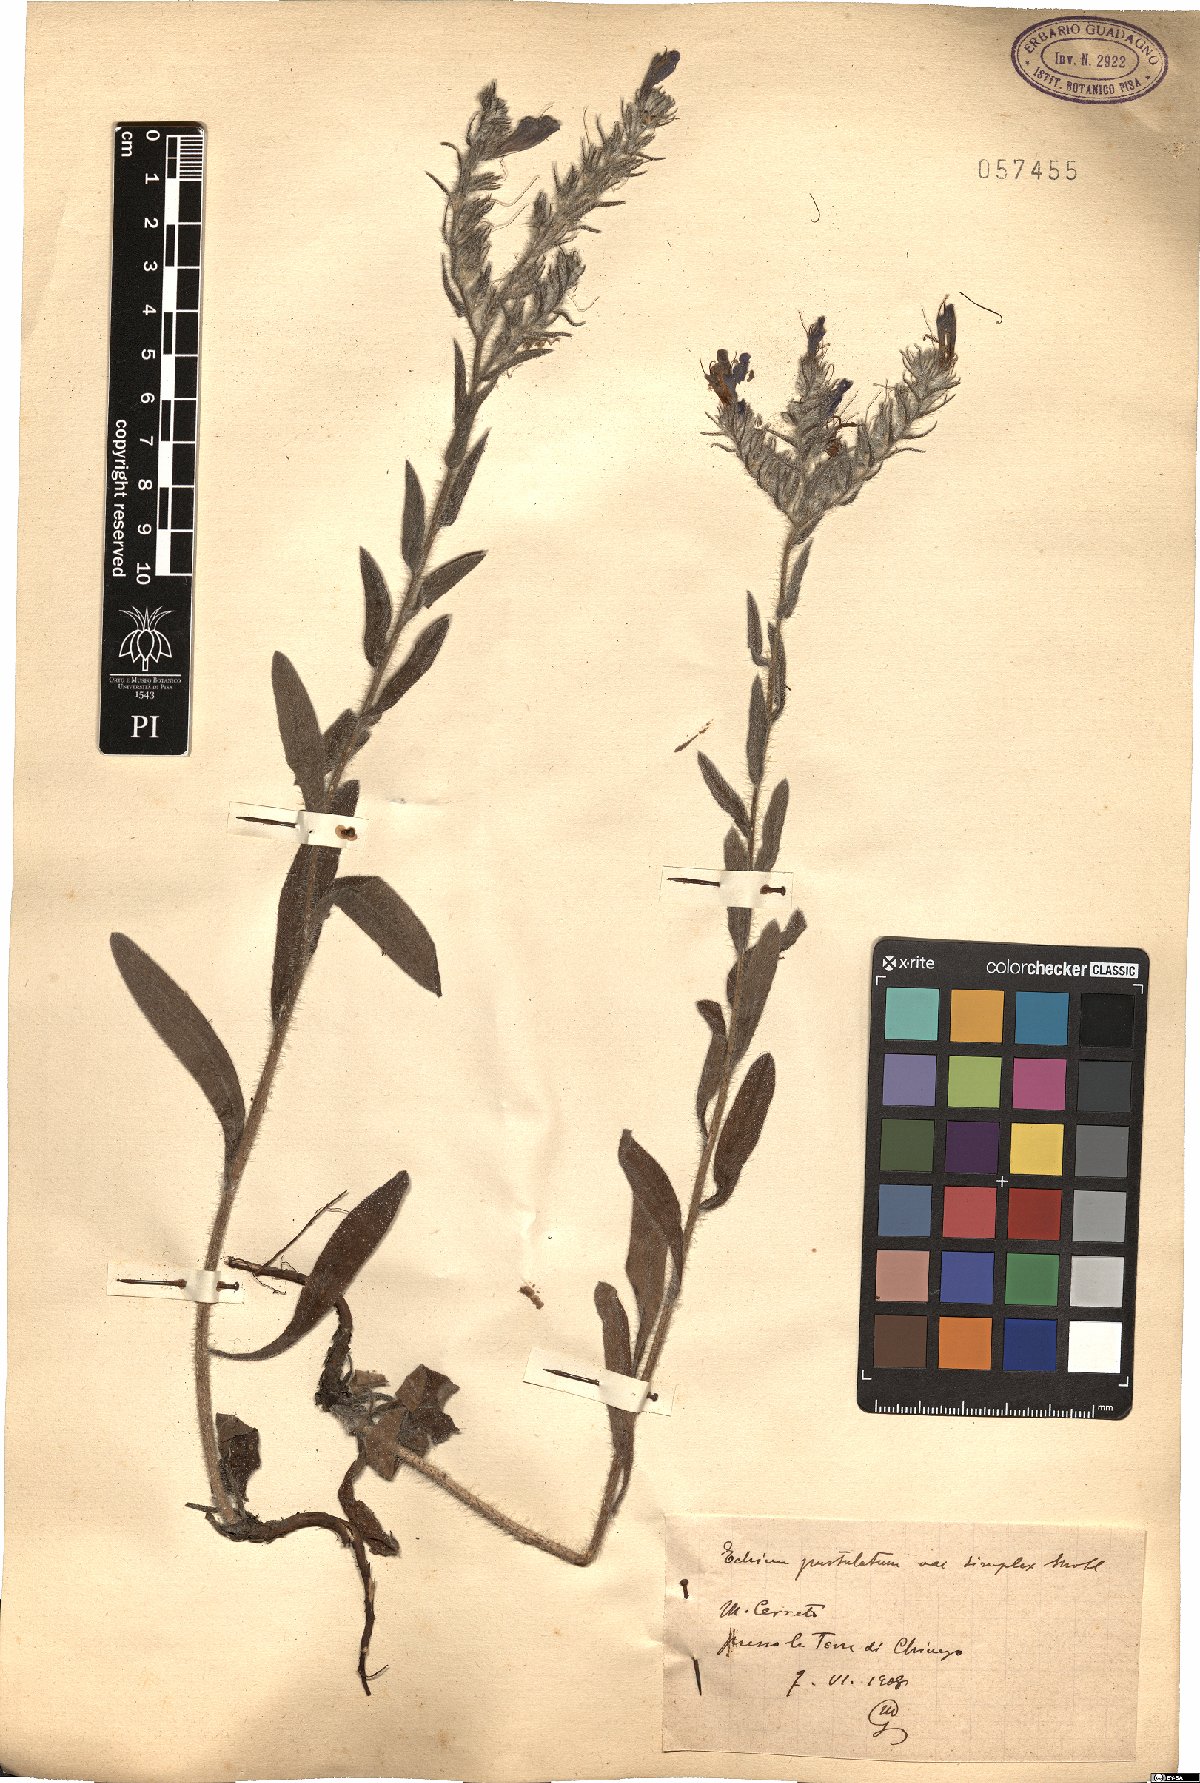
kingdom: Plantae
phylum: Tracheophyta
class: Magnoliopsida
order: Boraginales
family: Boraginaceae
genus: Echium
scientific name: Echium
